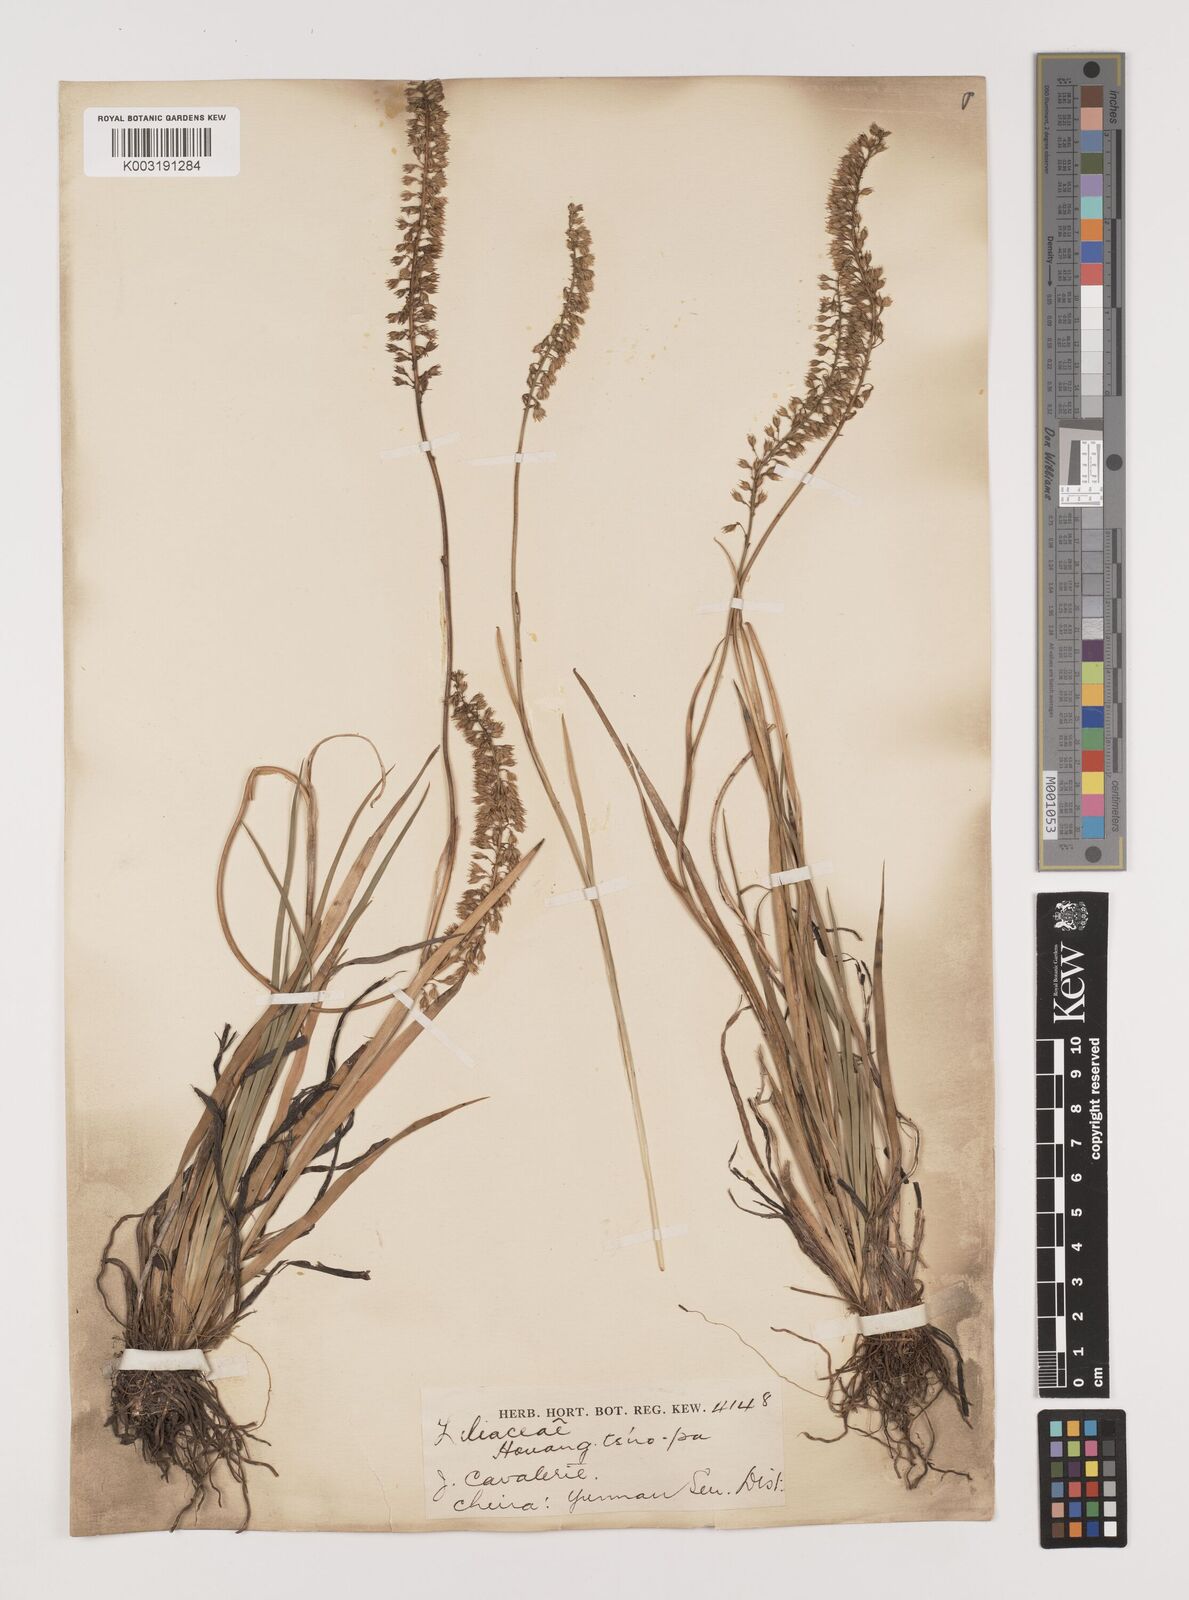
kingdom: Plantae
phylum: Tracheophyta
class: Liliopsida
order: Alismatales
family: Tofieldiaceae
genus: Tofieldia
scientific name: Tofieldia divergens
